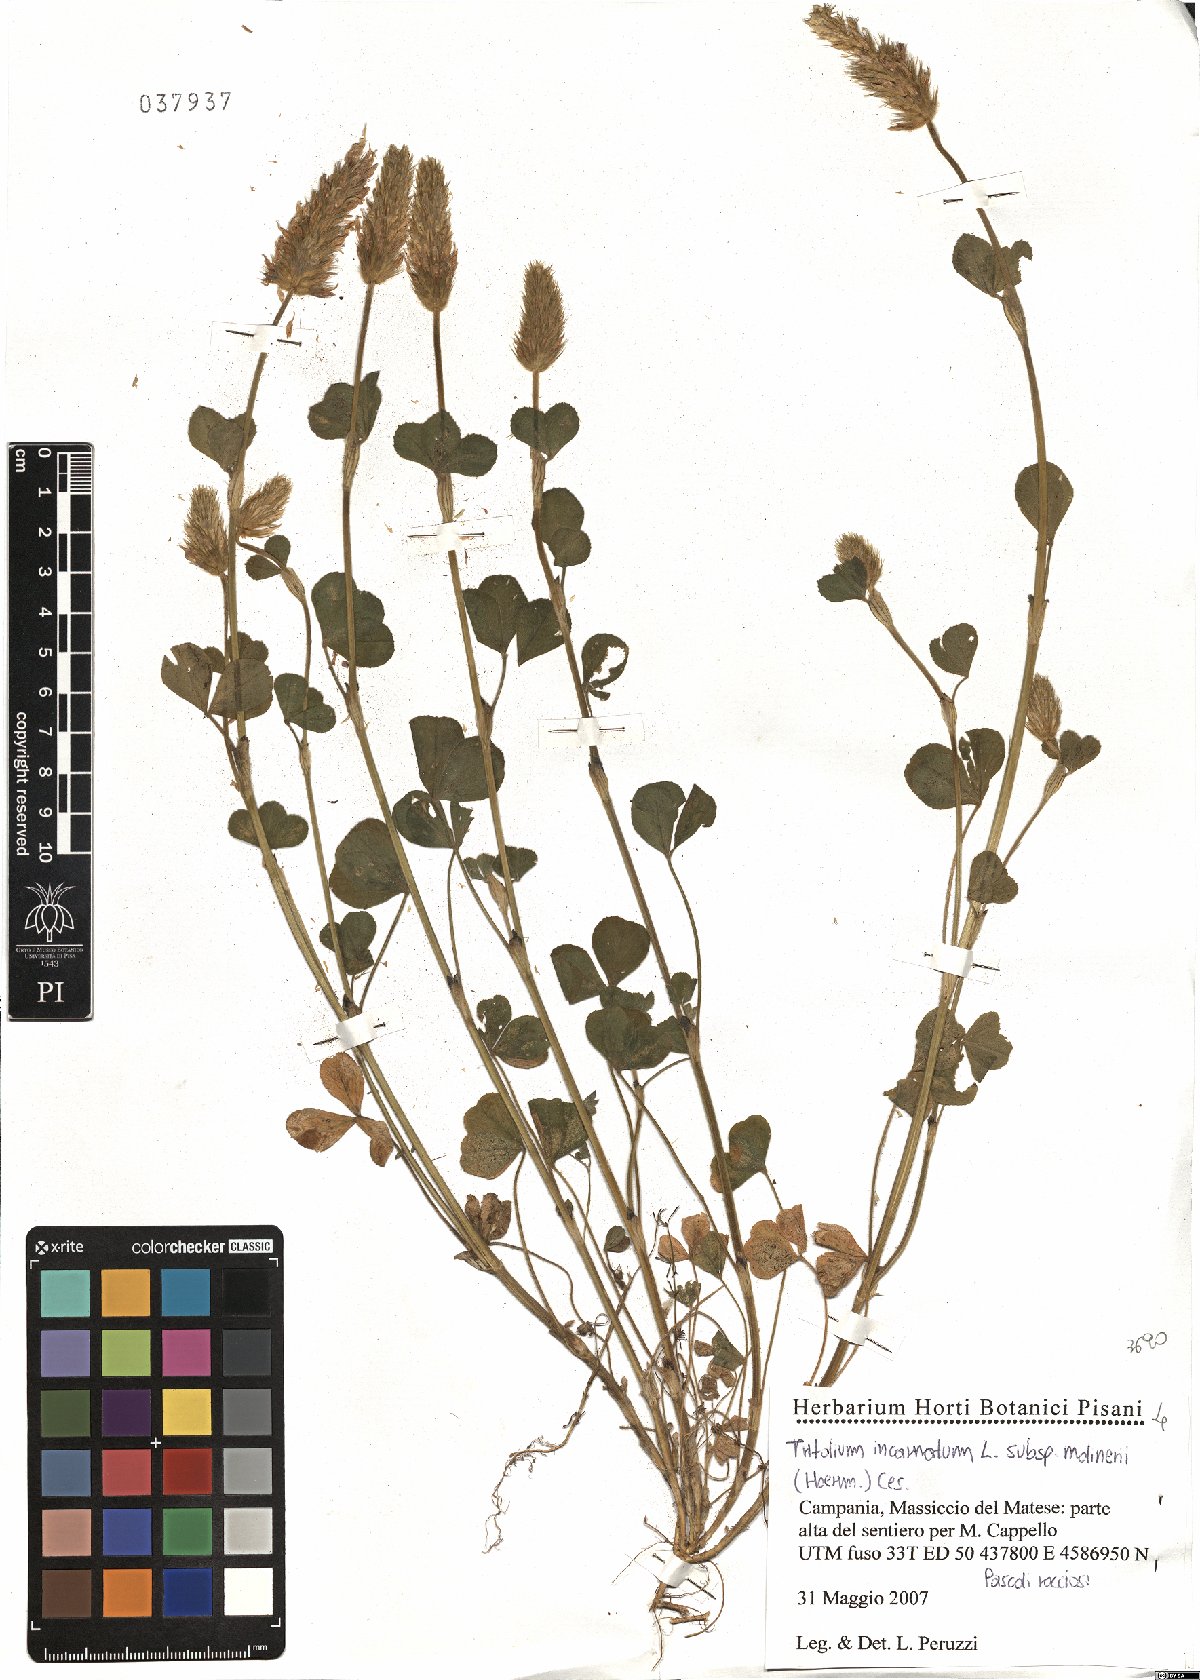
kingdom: Plantae
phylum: Tracheophyta
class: Magnoliopsida
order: Fabales
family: Fabaceae
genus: Trifolium
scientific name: Trifolium incarnatum
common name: Crimson clover
